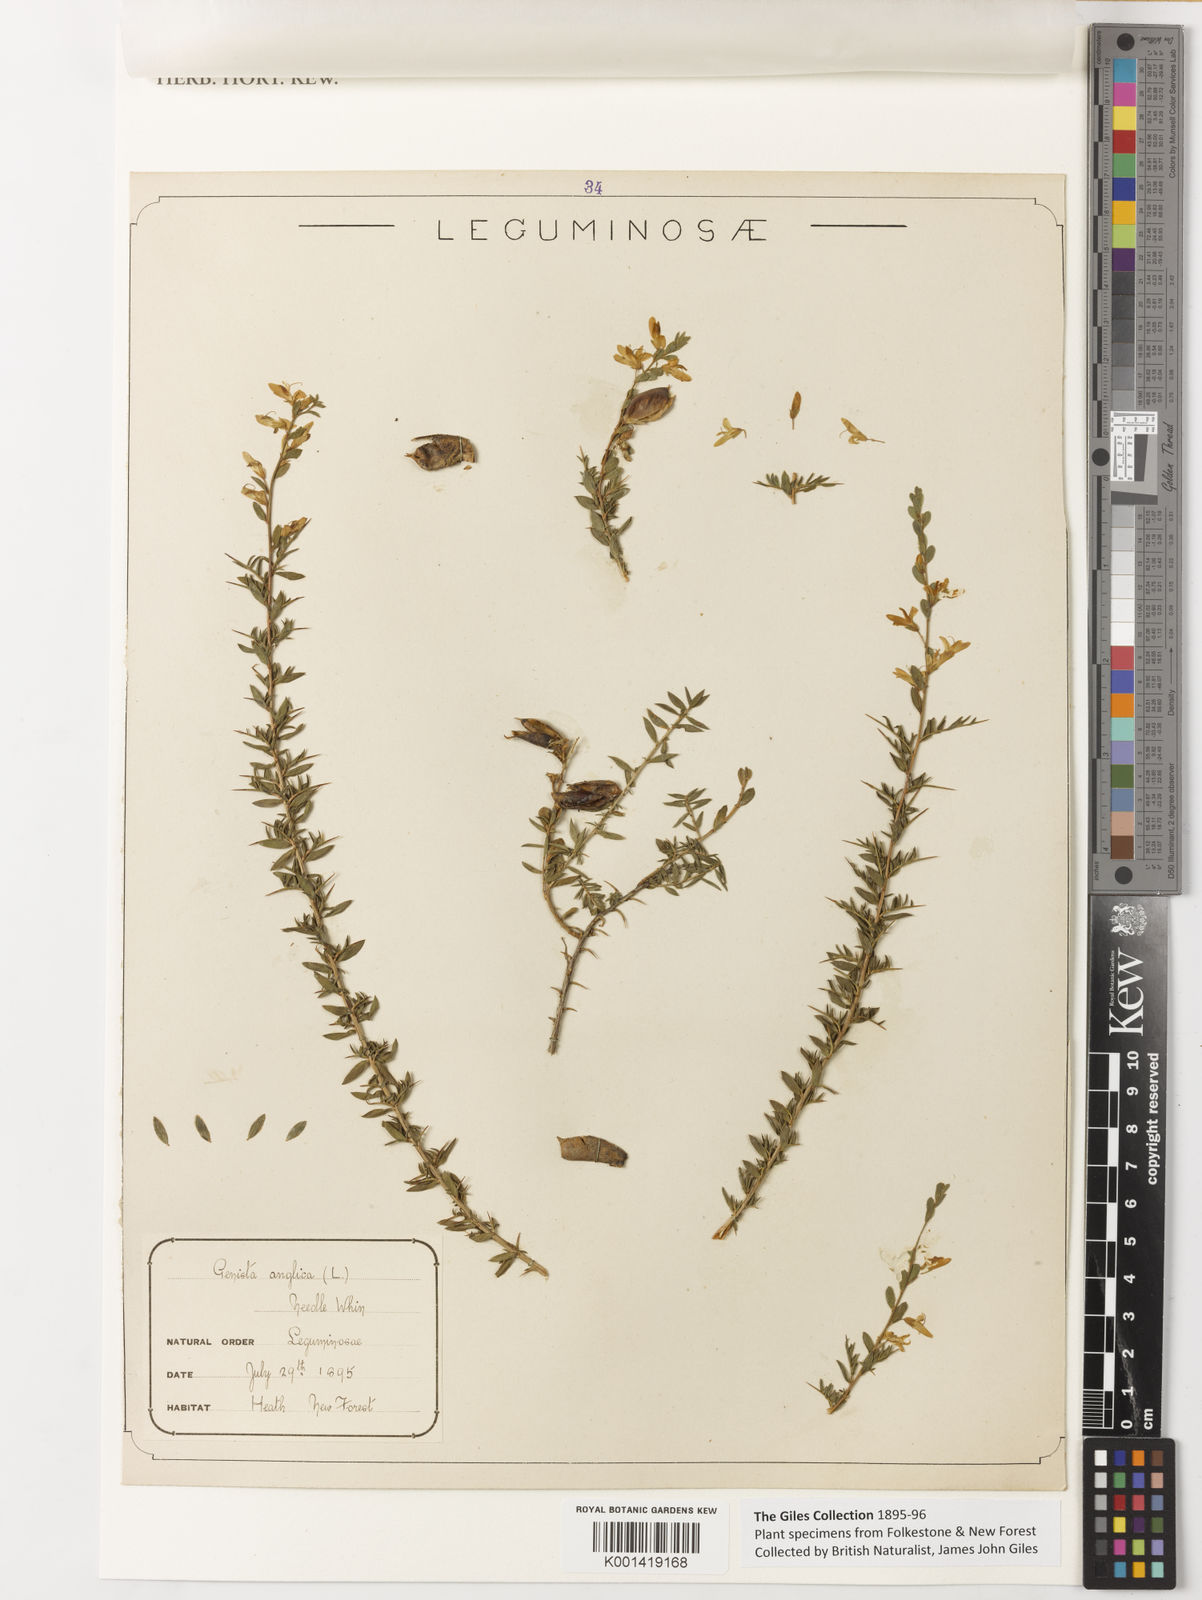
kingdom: Plantae
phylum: Tracheophyta
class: Magnoliopsida
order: Fabales
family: Fabaceae
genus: Genista
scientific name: Genista anglica
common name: Petty whin
